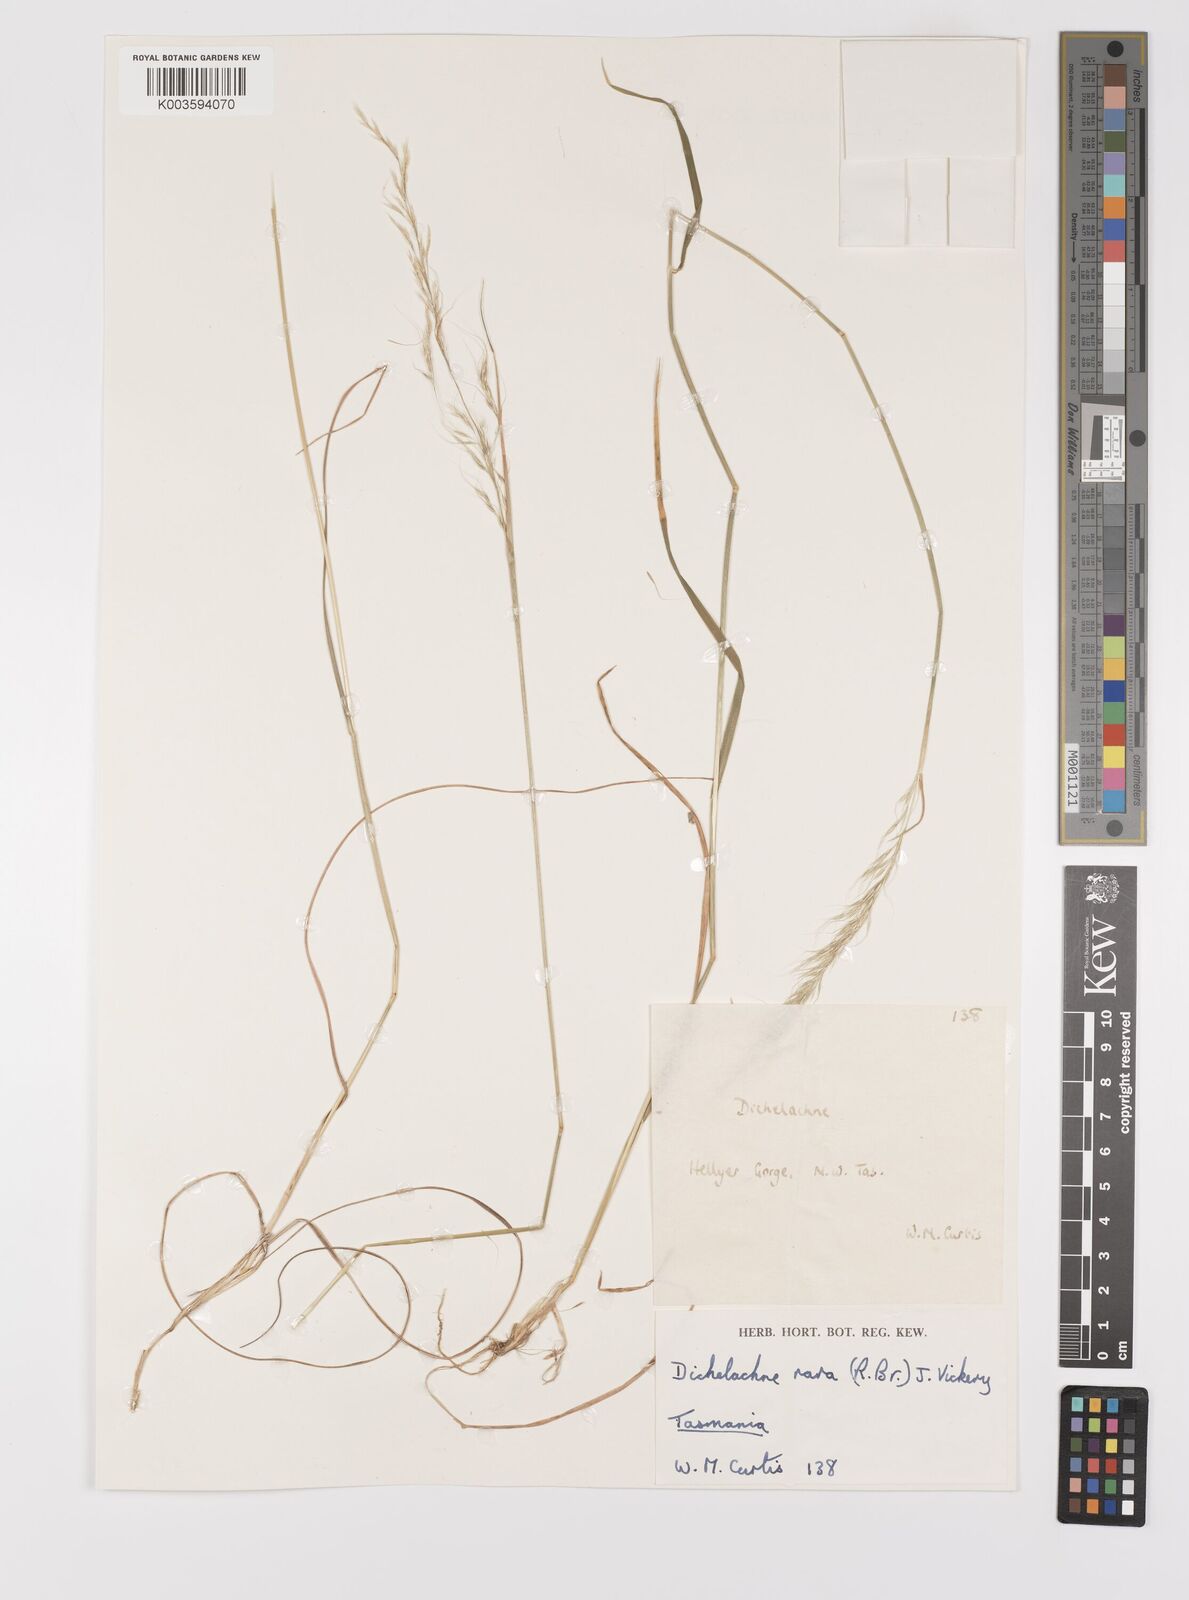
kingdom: Plantae
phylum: Tracheophyta
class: Liliopsida
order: Poales
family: Poaceae
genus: Dichelachne
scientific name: Dichelachne rara
